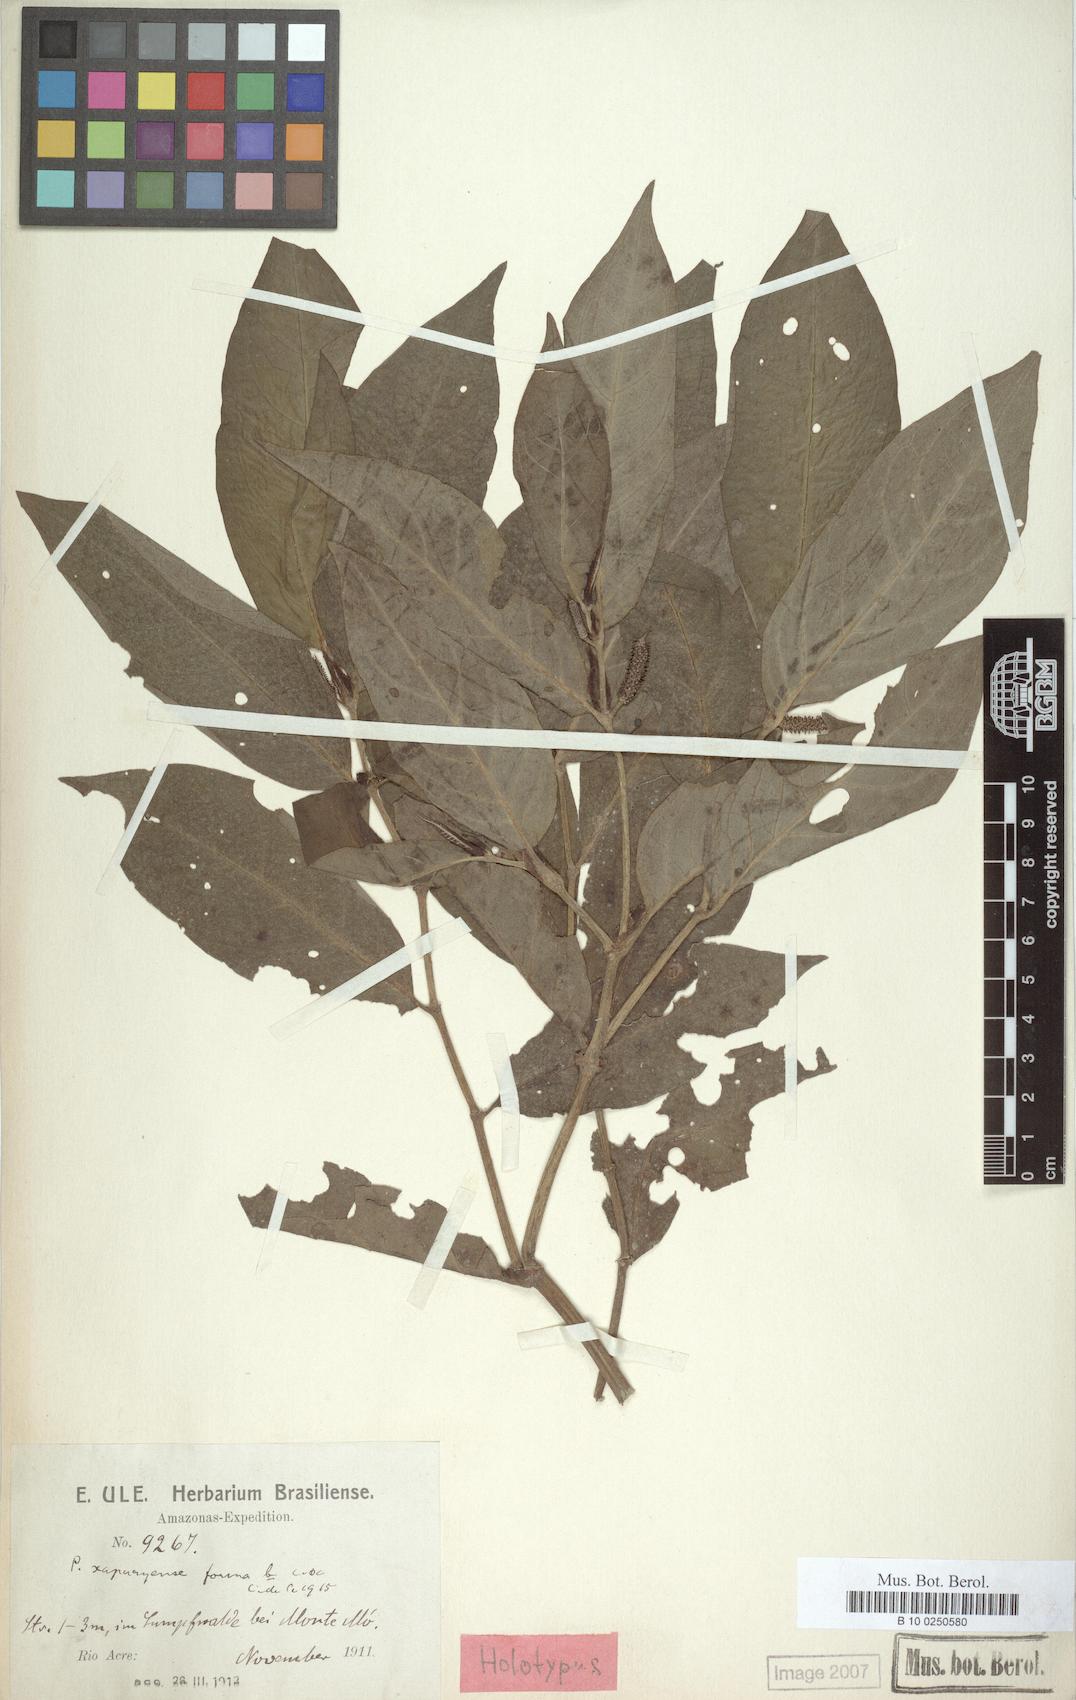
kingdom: Plantae
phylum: Tracheophyta
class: Magnoliopsida
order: Piperales
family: Piperaceae
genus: Piper
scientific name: Piper moense
